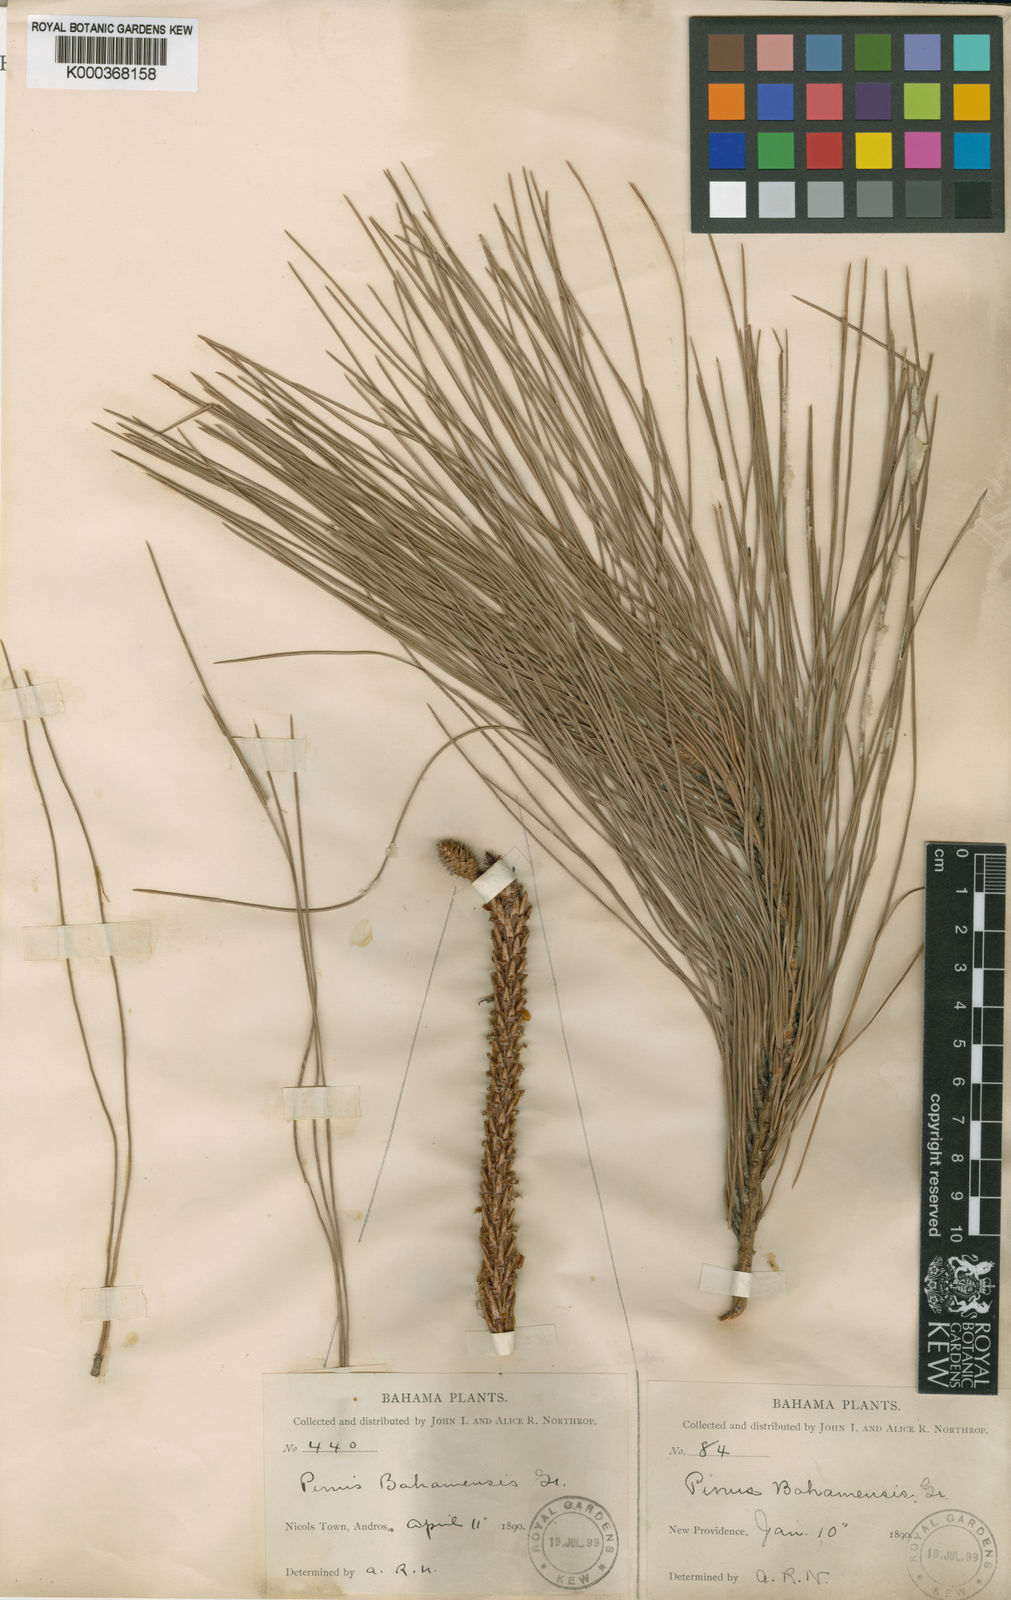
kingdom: Plantae
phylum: Tracheophyta
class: Pinopsida
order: Pinales
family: Pinaceae
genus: Pinus
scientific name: Pinus caribaea
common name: Caribbean pine
